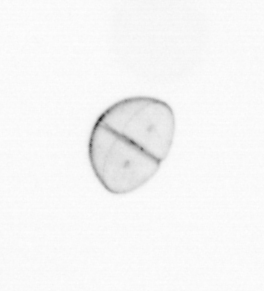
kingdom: Chromista
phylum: Ochrophyta
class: Bacillariophyceae
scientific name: Bacillariophyceae
